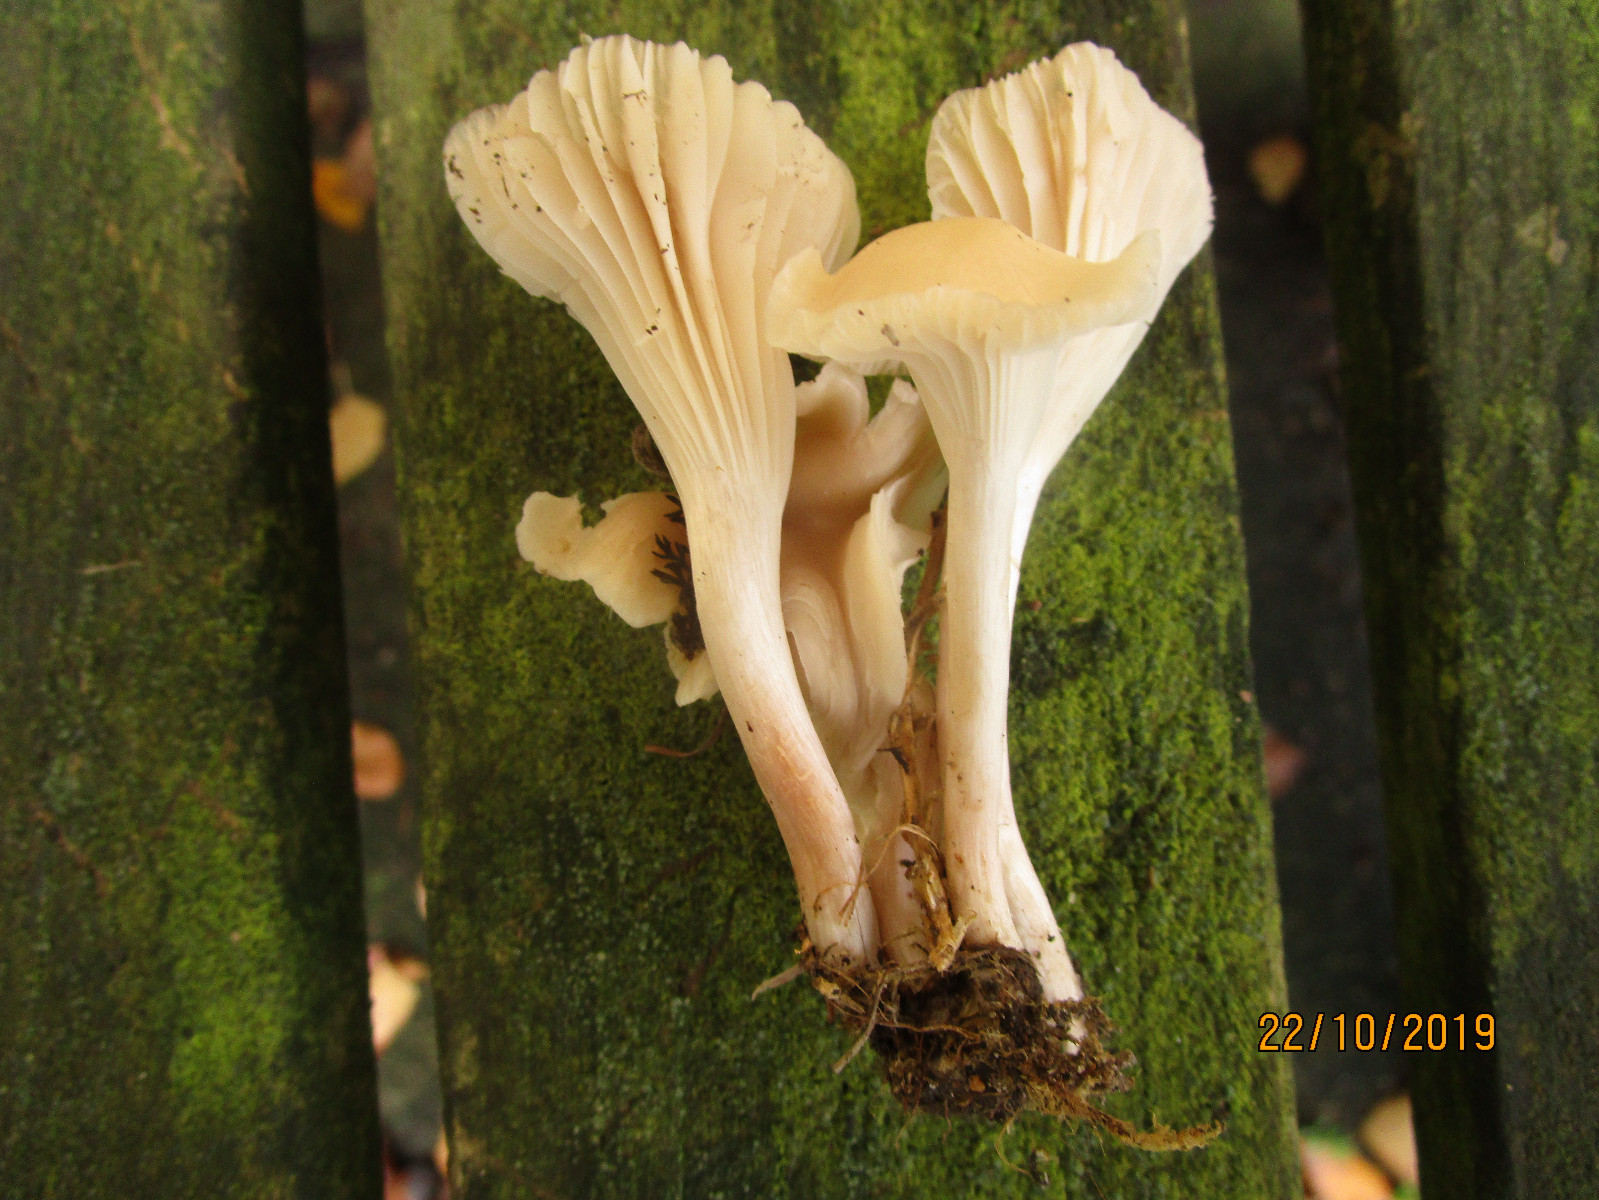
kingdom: Fungi
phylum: Basidiomycota
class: Agaricomycetes
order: Agaricales
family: Hygrophoraceae
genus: Cuphophyllus
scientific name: Cuphophyllus virgineus
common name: snehvid vokshat
